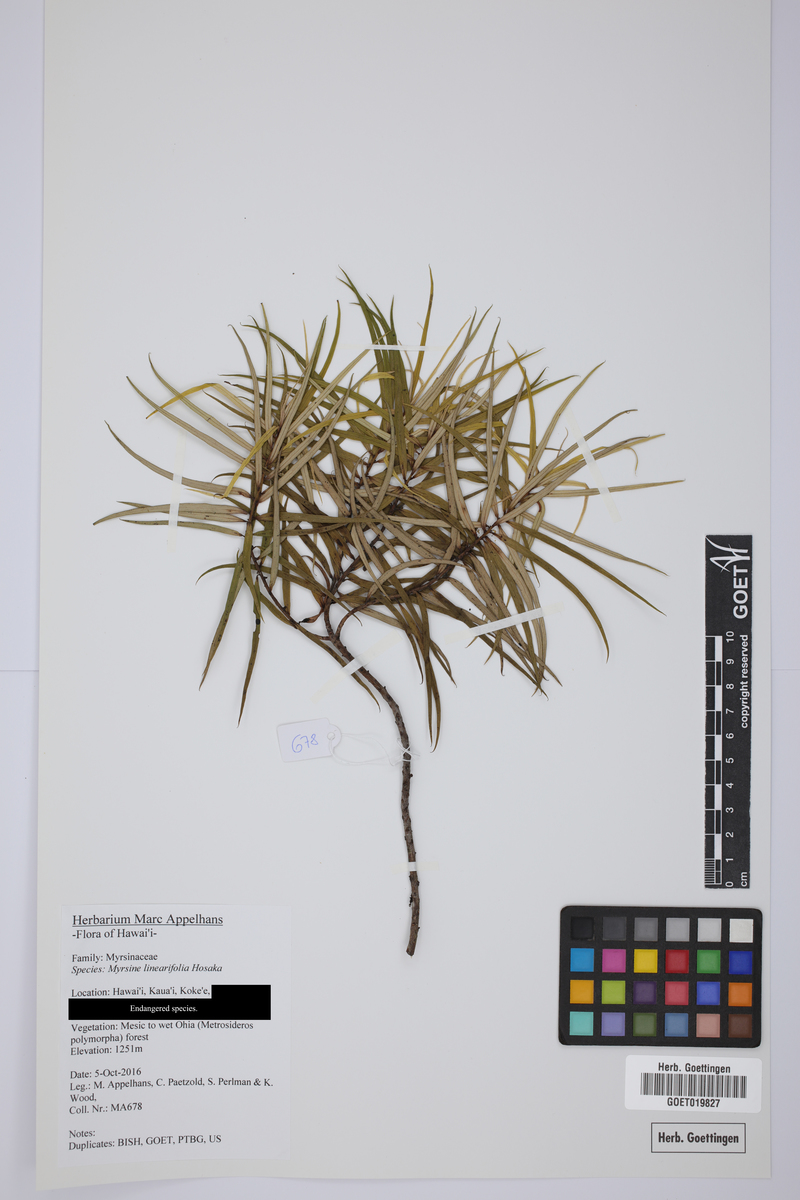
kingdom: Plantae
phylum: Tracheophyta
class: Magnoliopsida
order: Ericales
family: Primulaceae
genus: Myrsine
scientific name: Myrsine linearifolia
